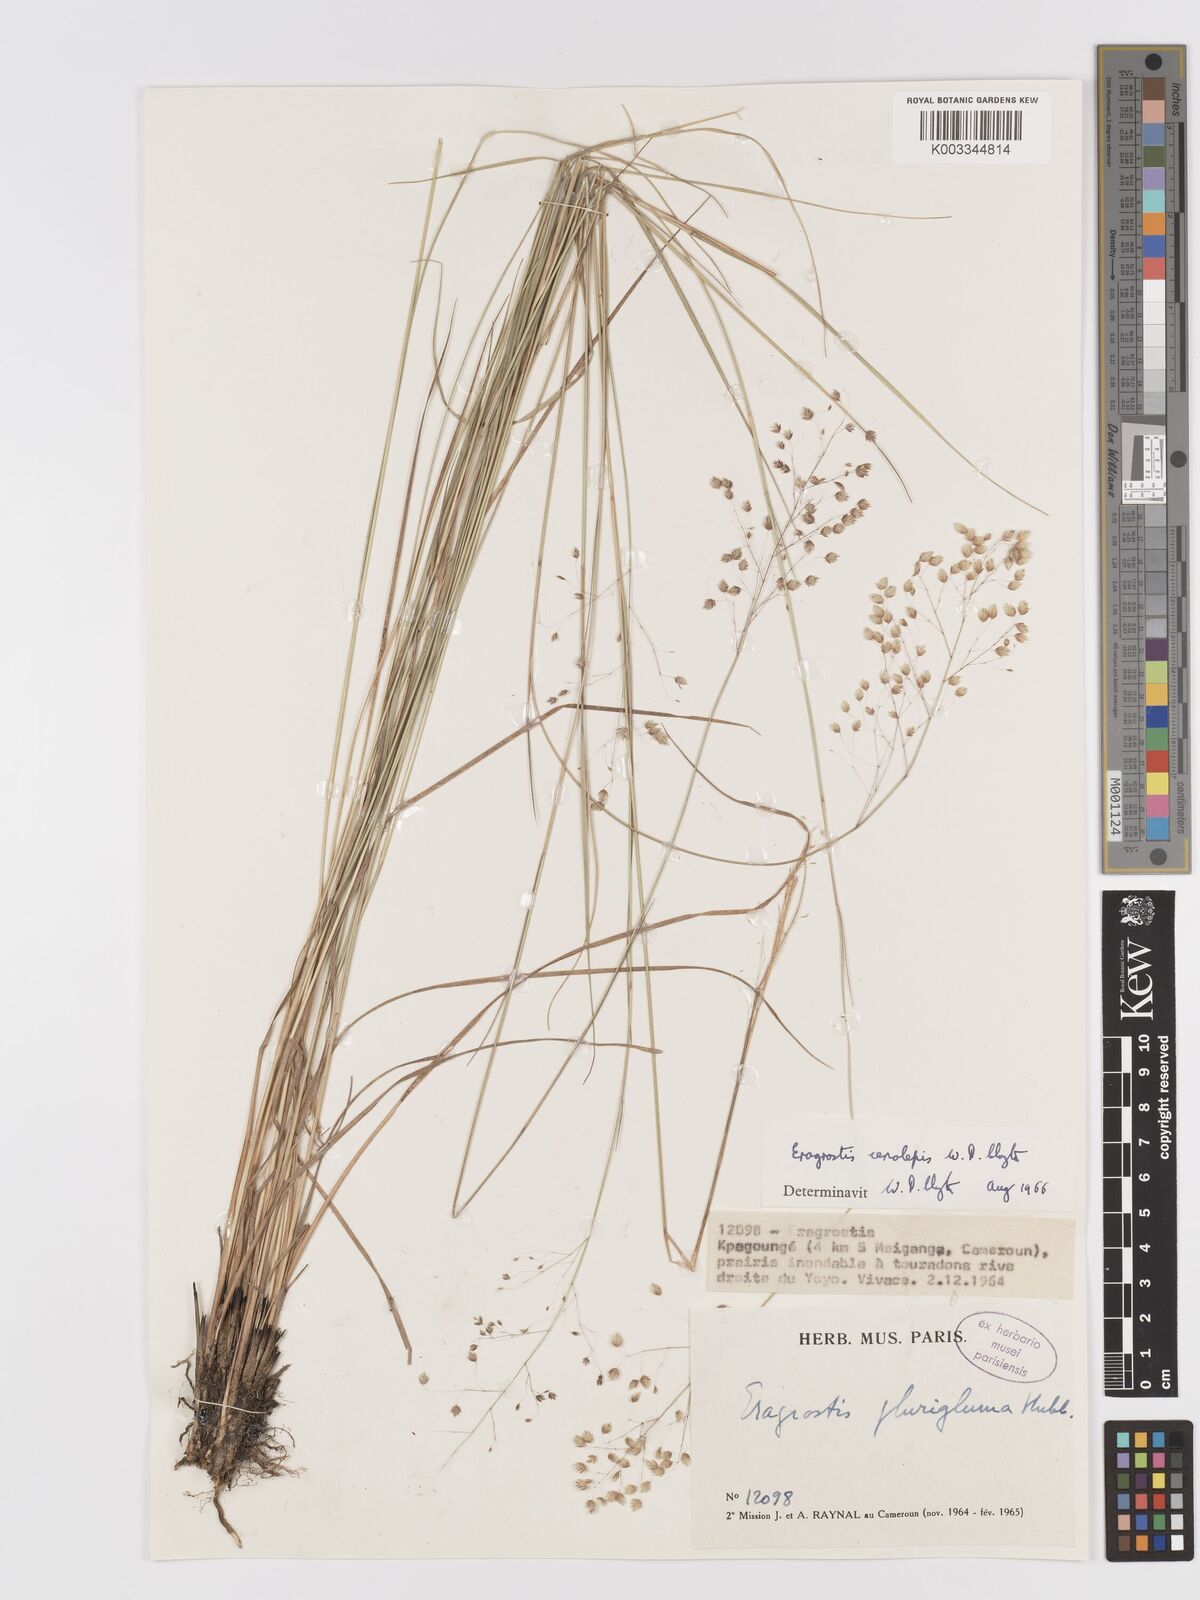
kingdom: Plantae
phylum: Tracheophyta
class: Liliopsida
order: Poales
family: Poaceae
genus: Eragrostis
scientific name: Eragrostis cenolepis
